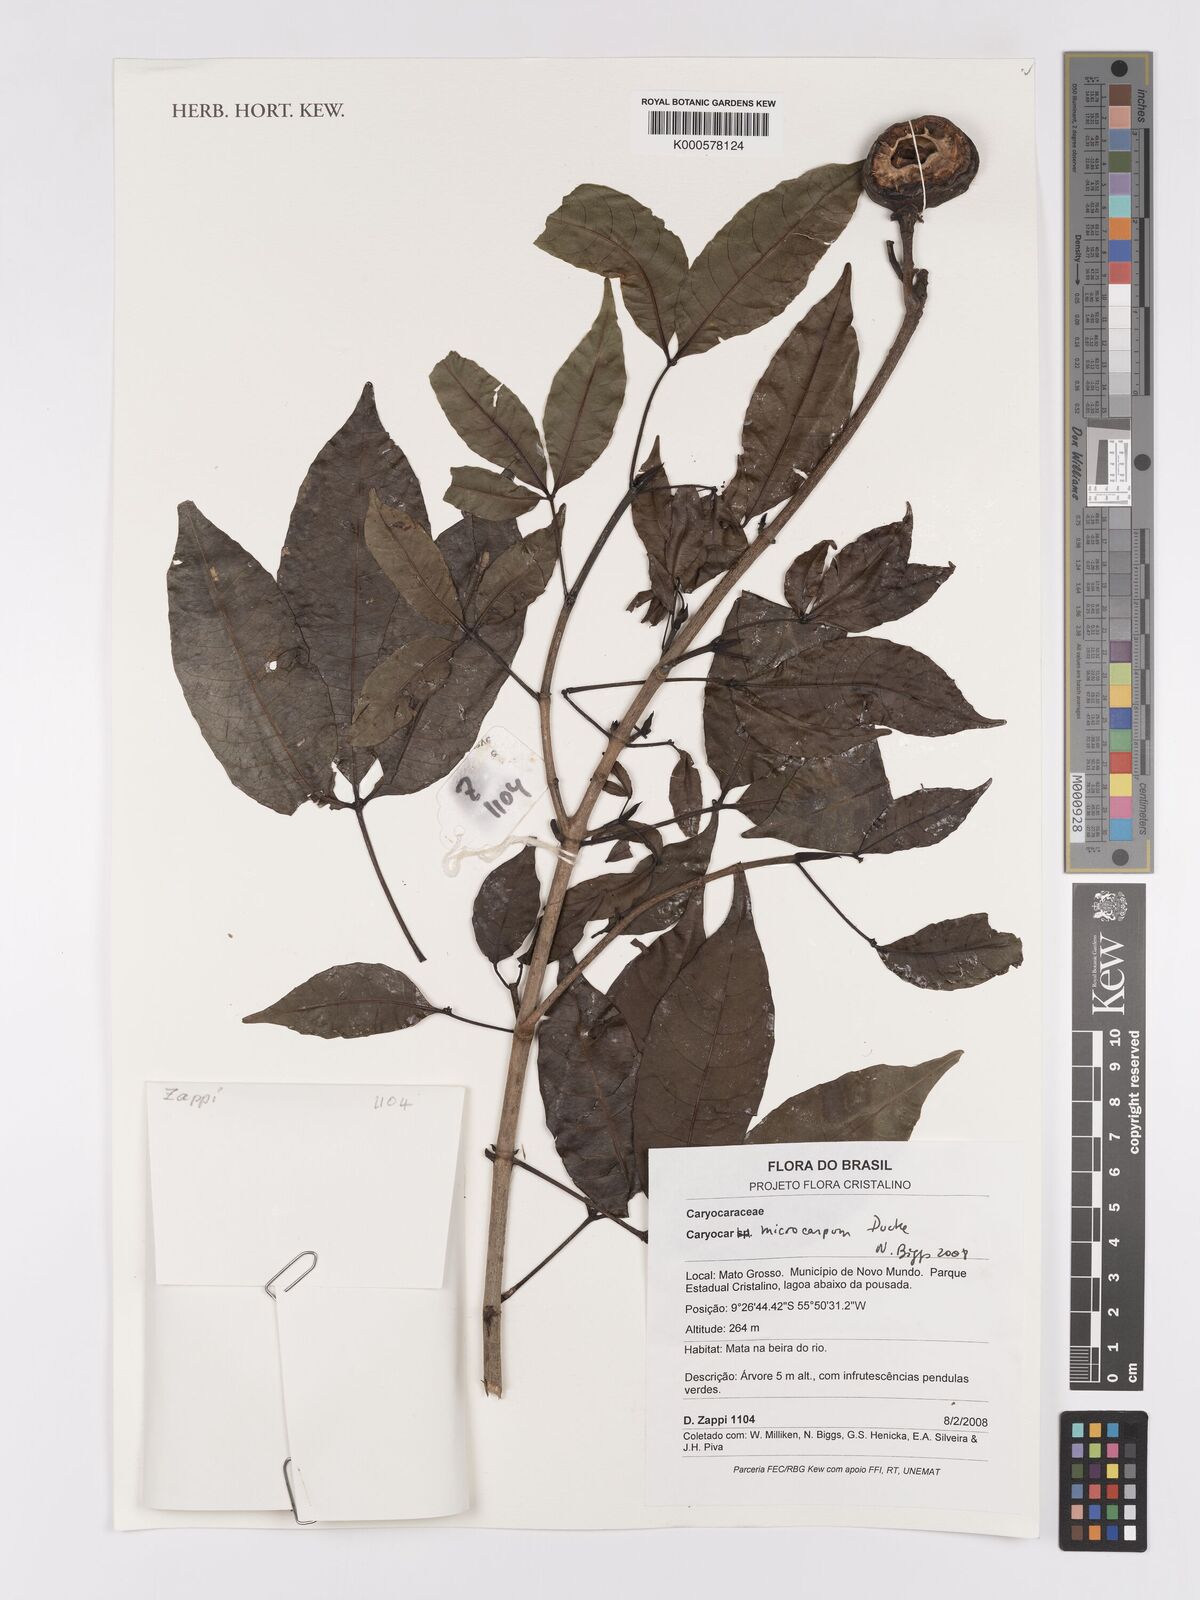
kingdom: Plantae
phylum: Tracheophyta
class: Magnoliopsida
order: Malpighiales
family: Caryocaraceae
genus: Caryocar
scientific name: Caryocar microcarpum
